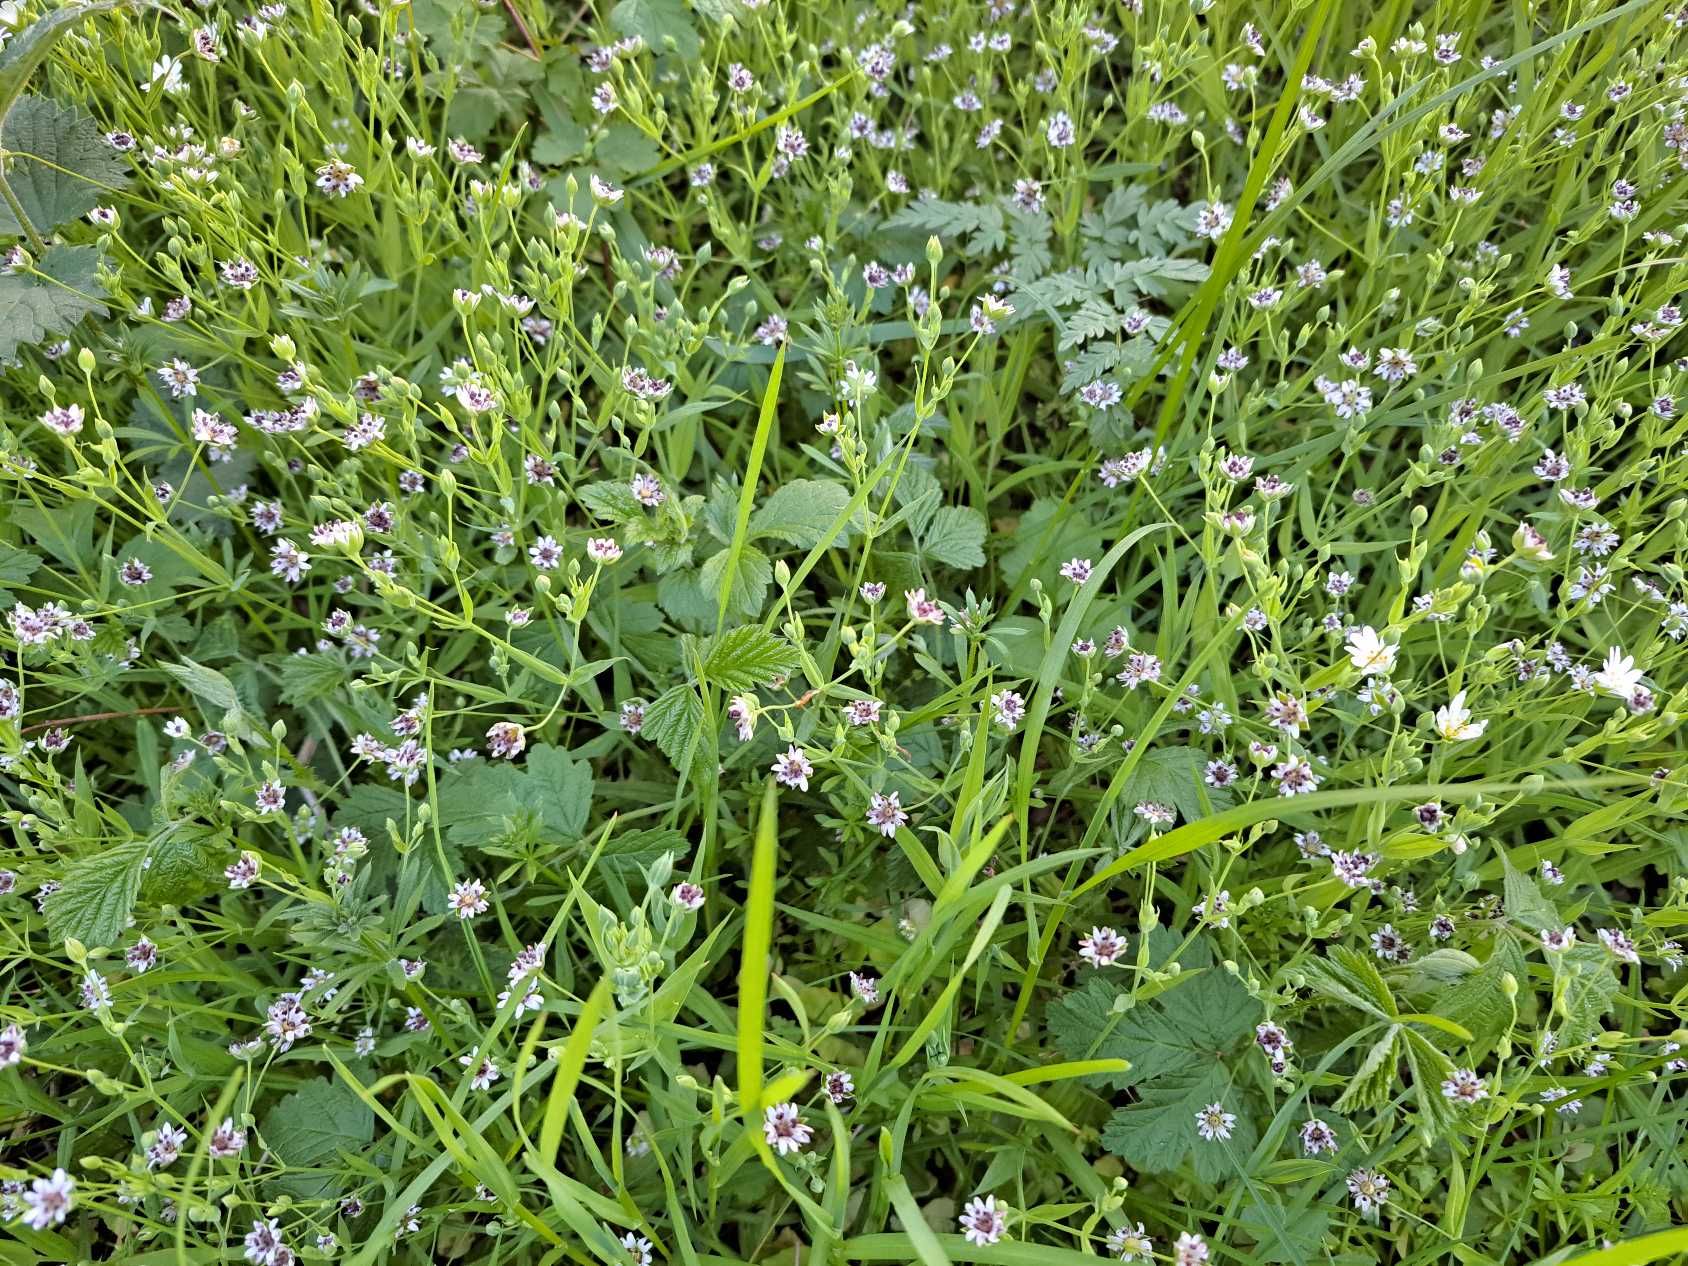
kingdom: Plantae
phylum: Tracheophyta
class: Magnoliopsida
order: Caryophyllales
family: Caryophyllaceae
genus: Rabelera
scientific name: Rabelera holostea
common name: Stor fladstjerne
